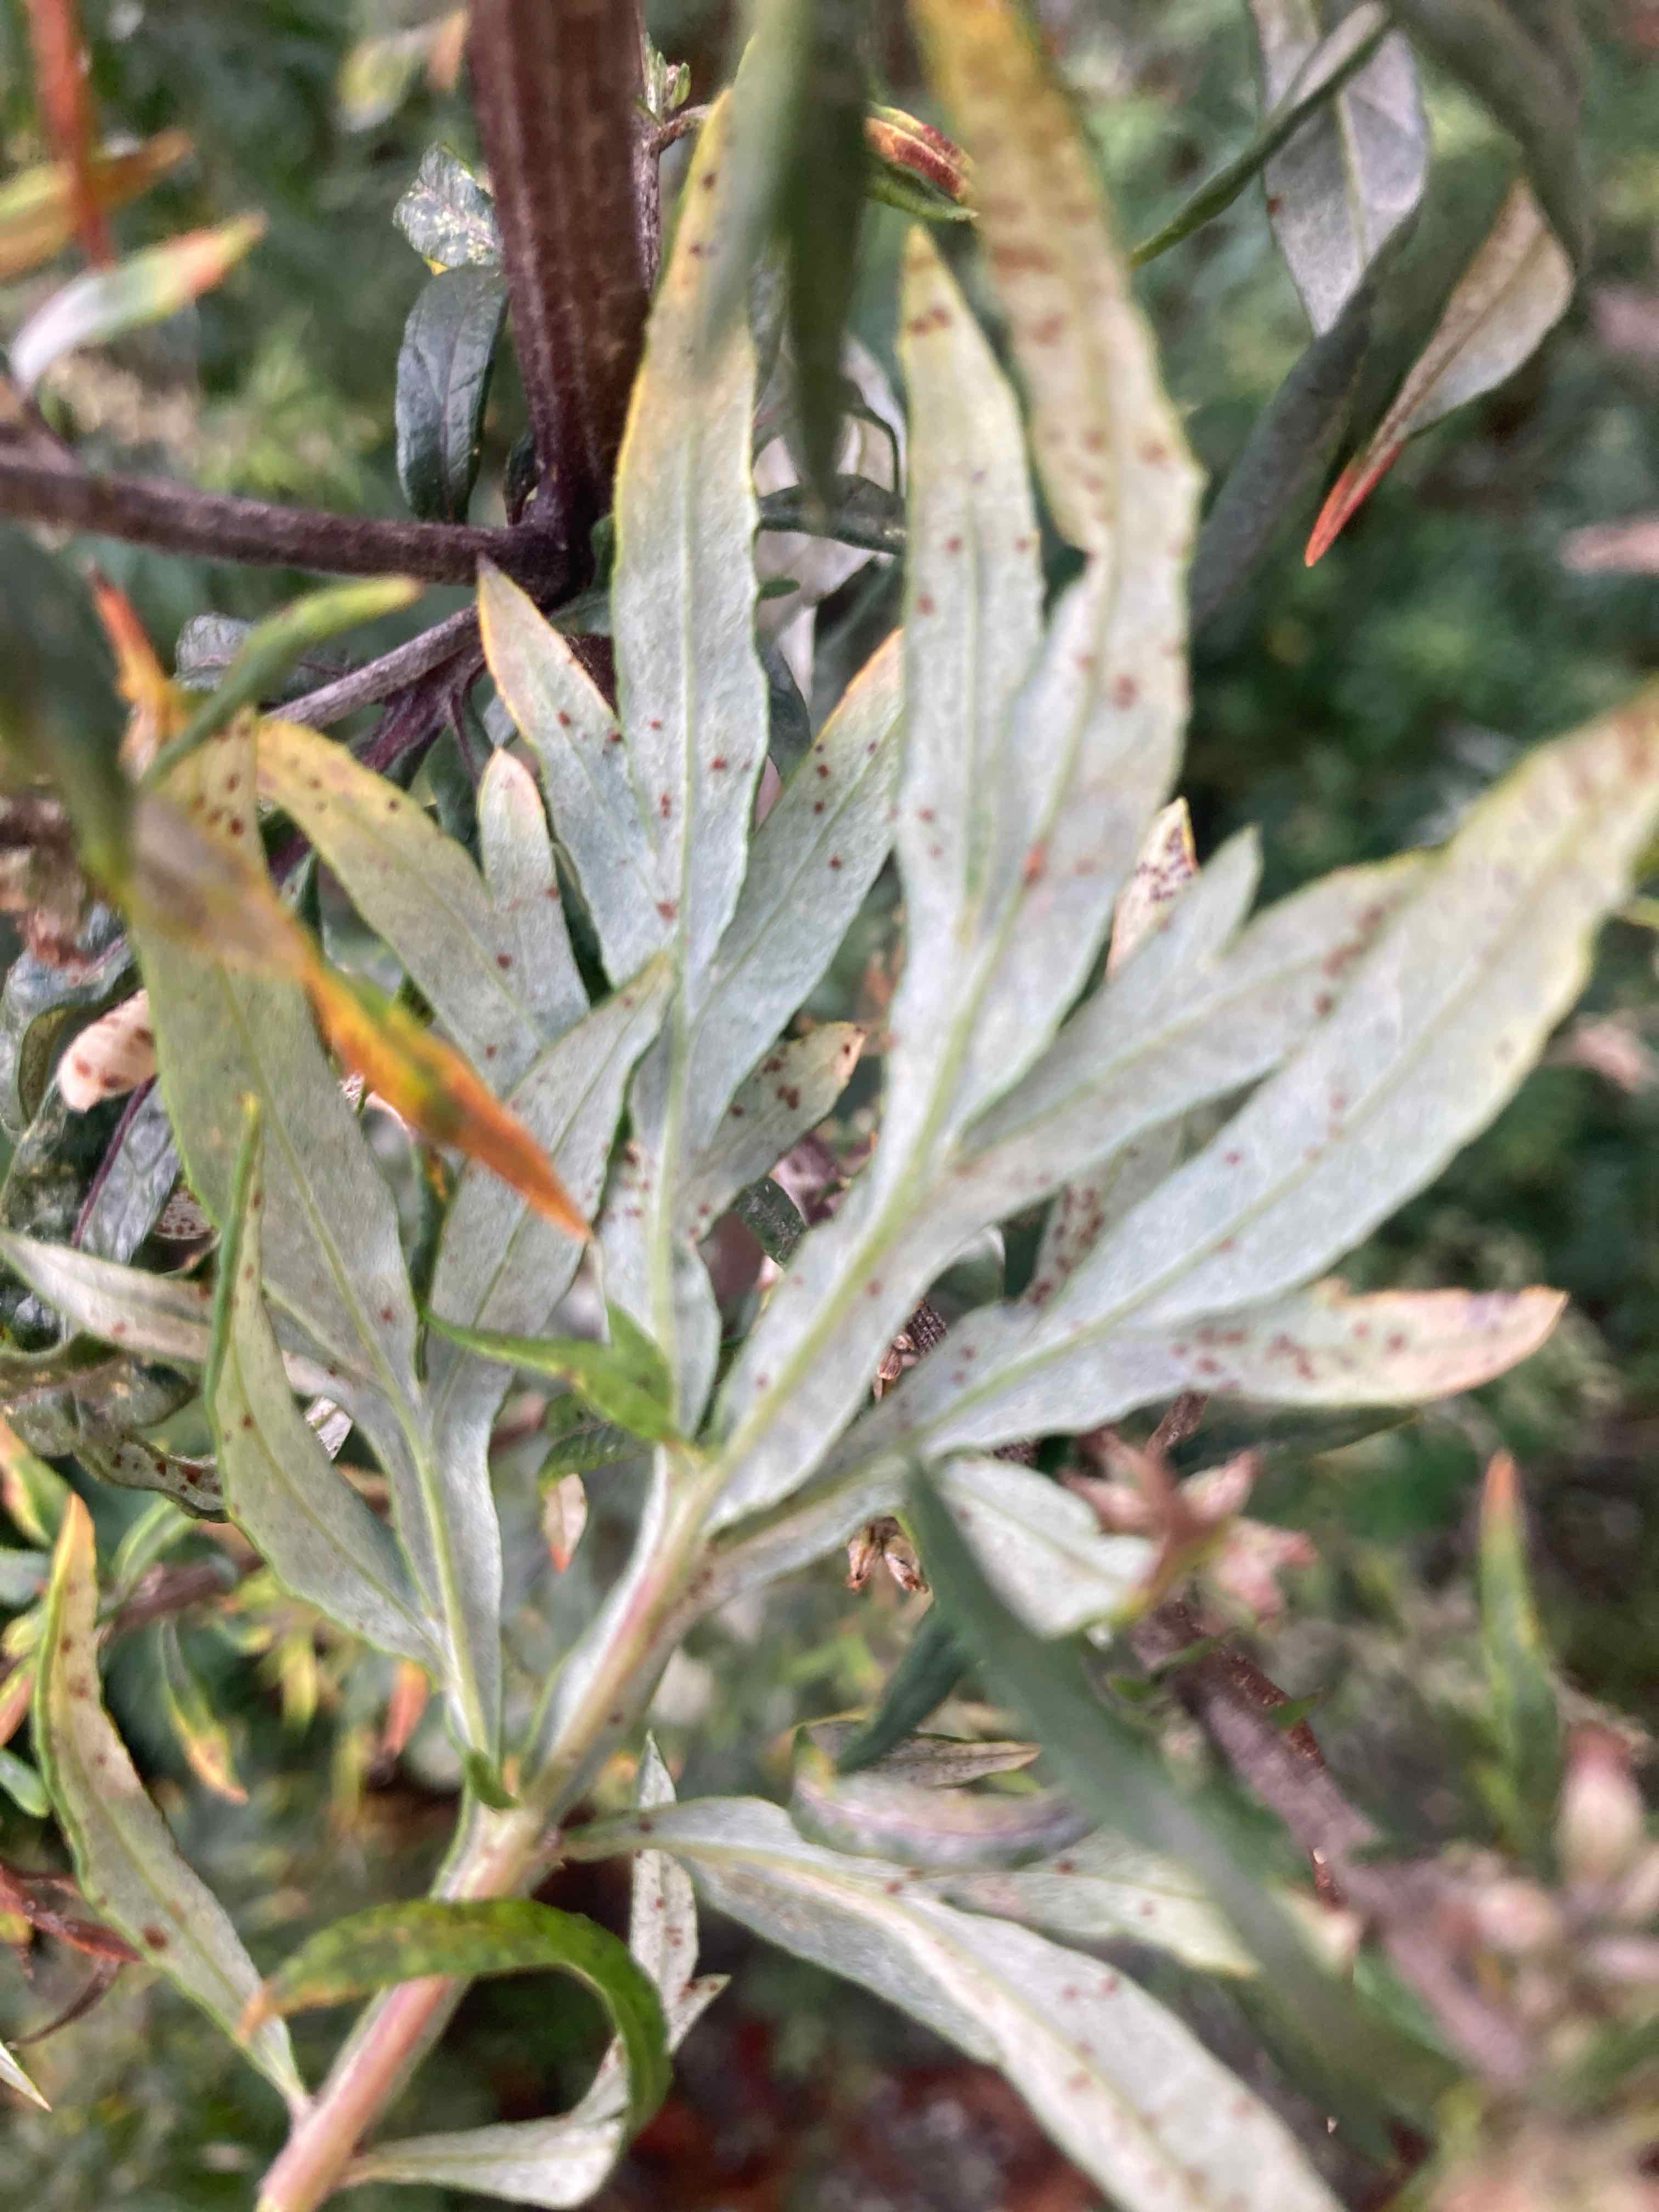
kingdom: Fungi
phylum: Basidiomycota
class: Pucciniomycetes
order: Pucciniales
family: Pucciniaceae
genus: Puccinia
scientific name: Puccinia tanaceti
